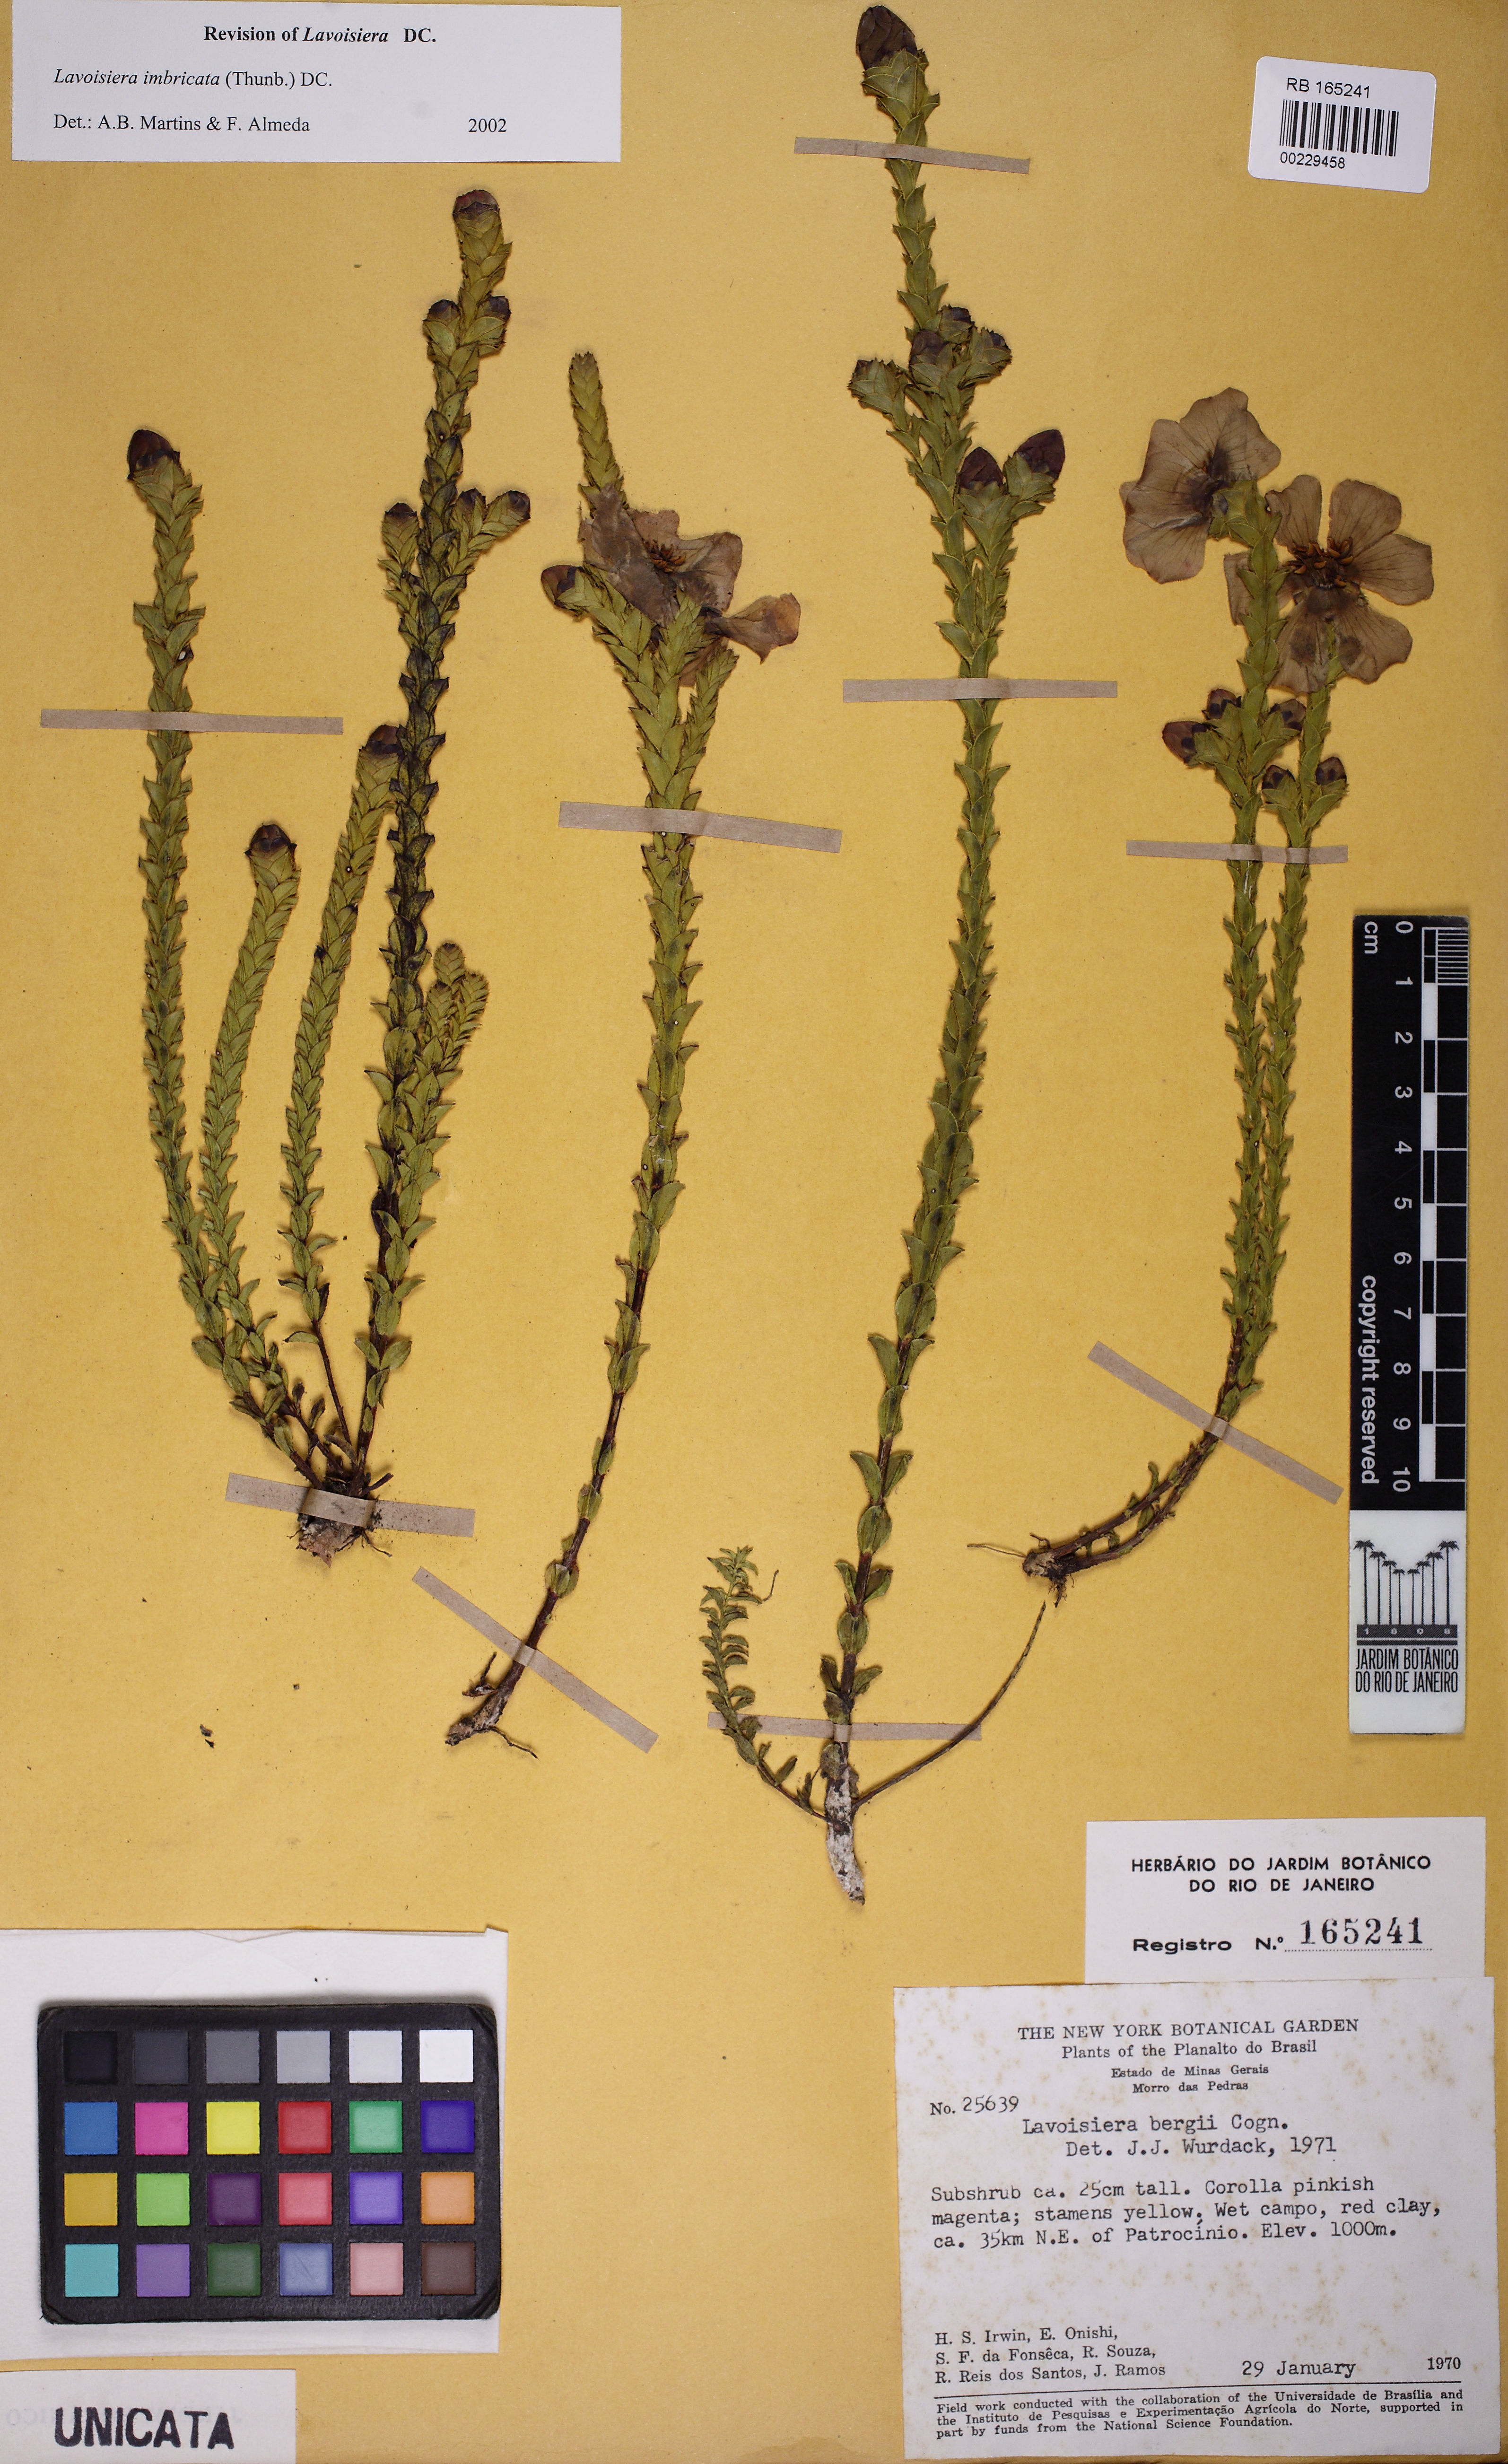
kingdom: Plantae
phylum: Tracheophyta
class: Magnoliopsida
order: Myrtales
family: Melastomataceae
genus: Microlicia
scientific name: Microlicia cataphracta
